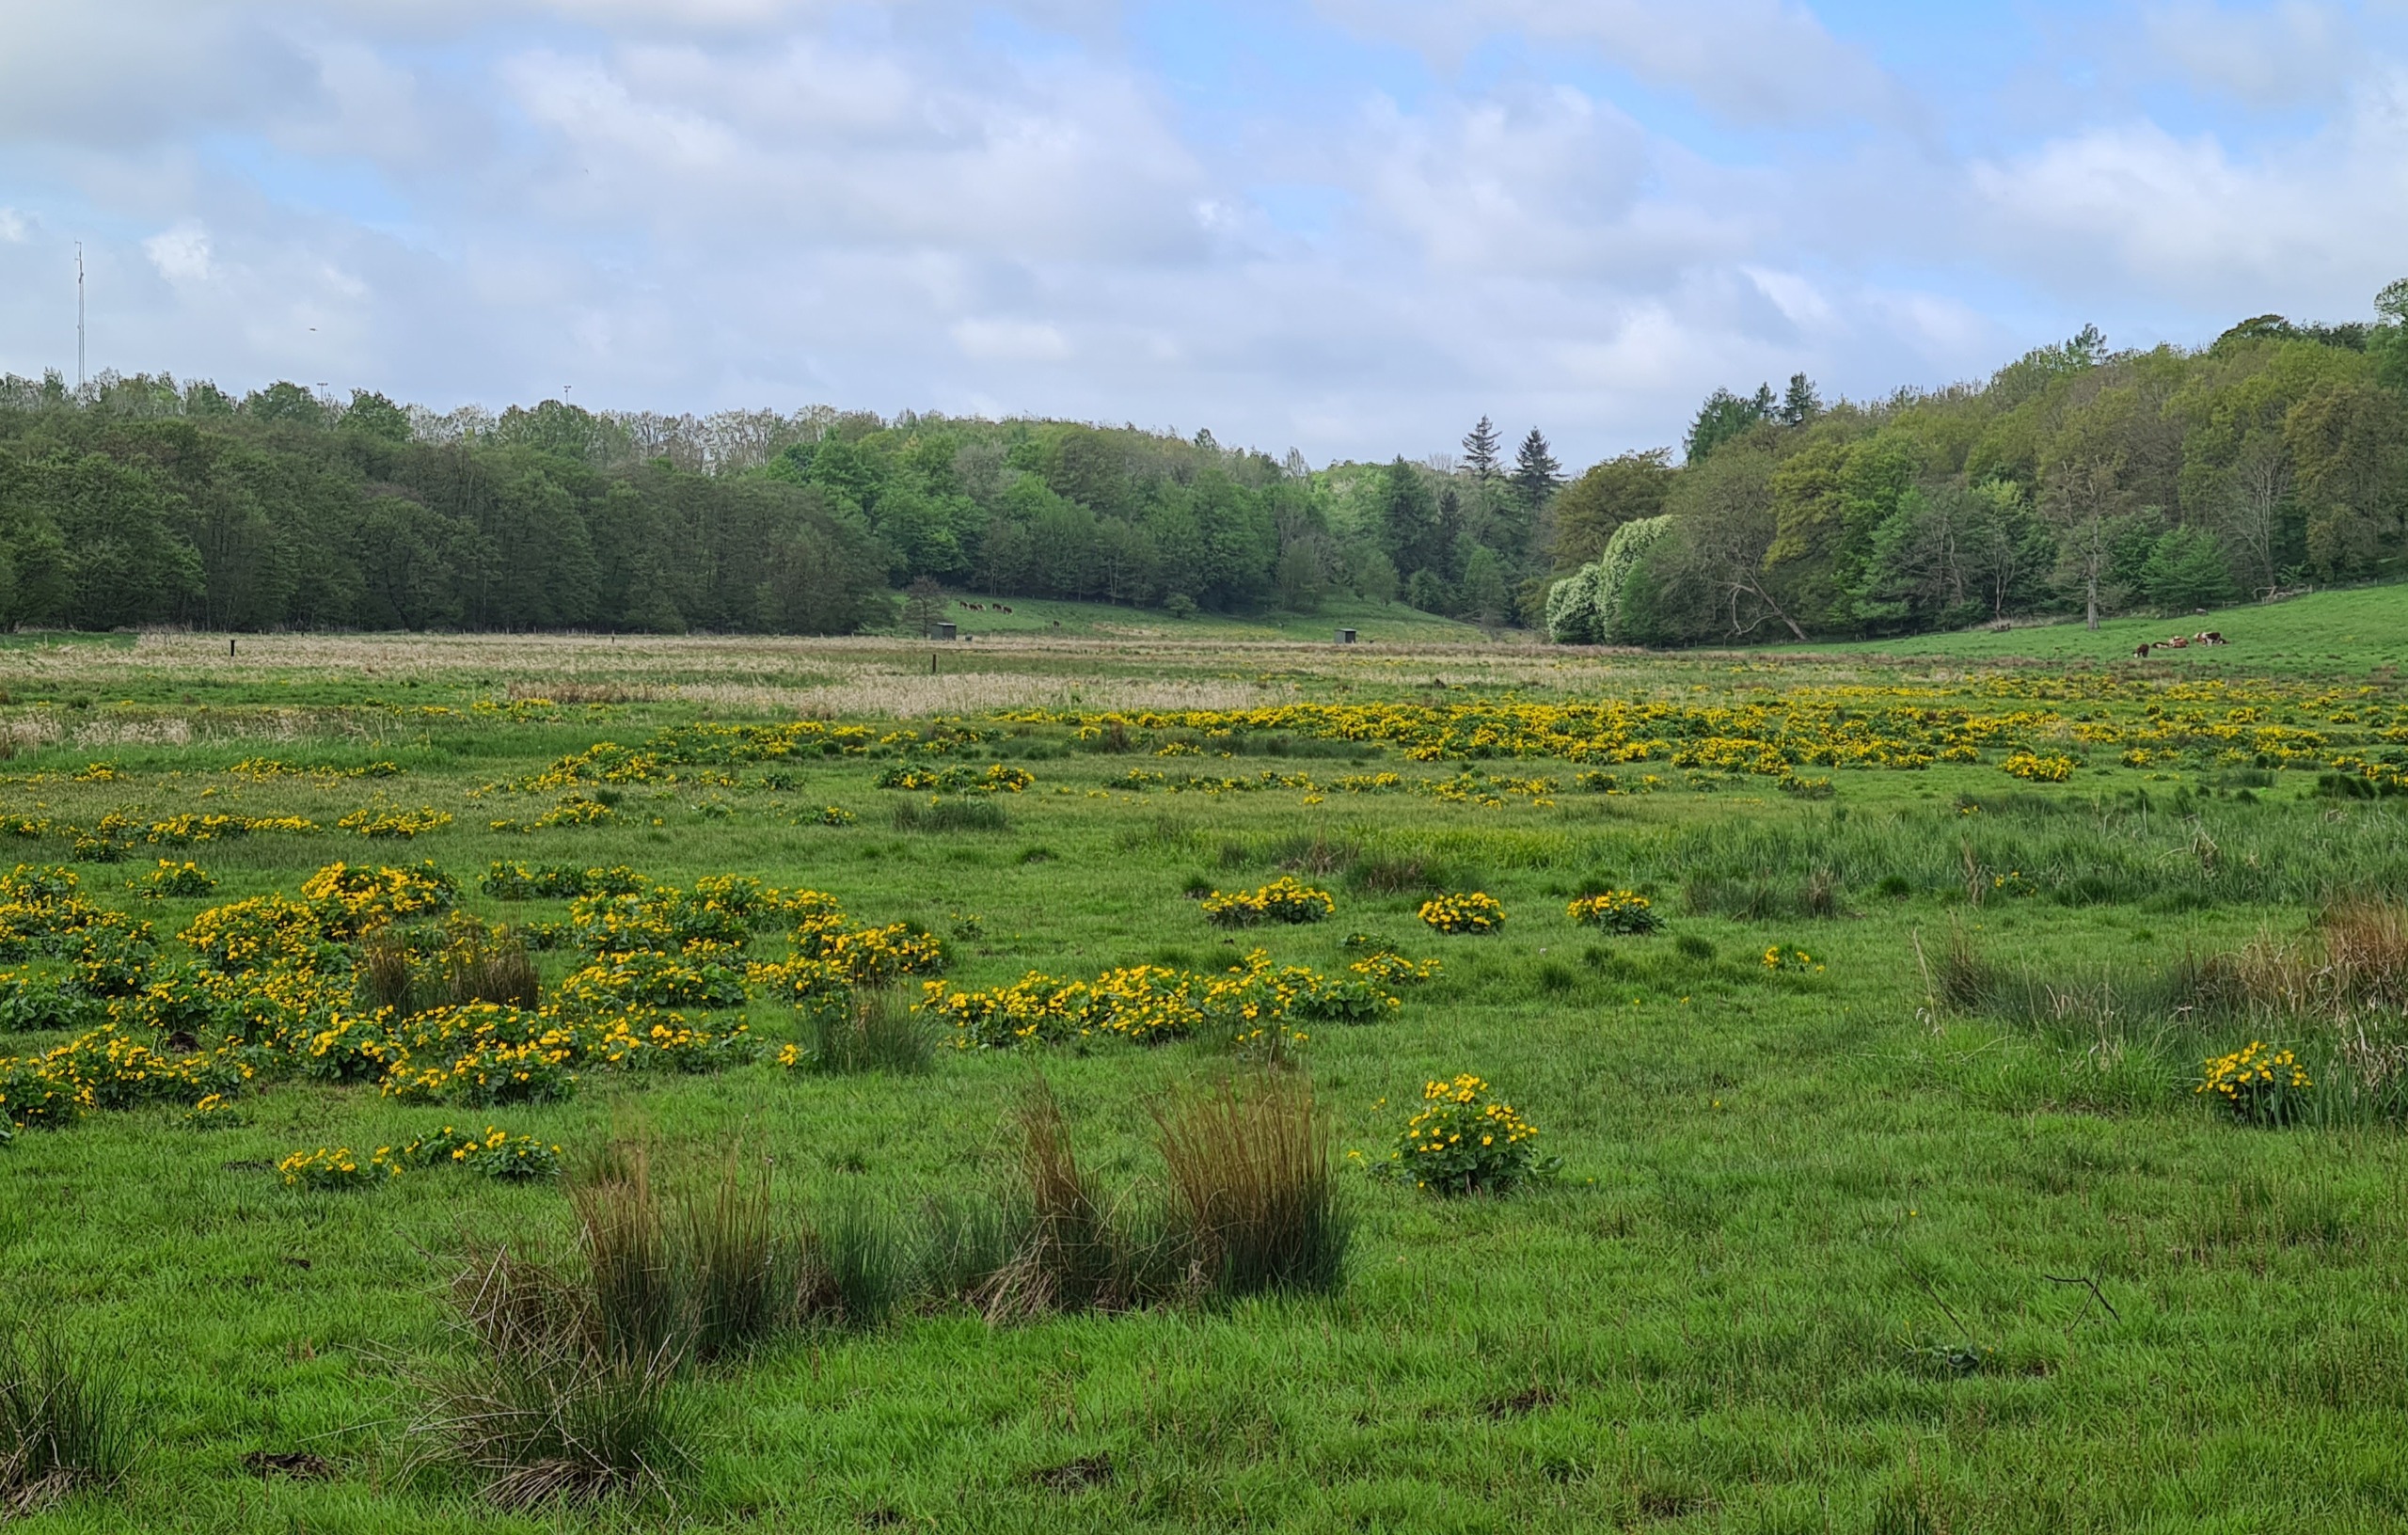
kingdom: Plantae
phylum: Tracheophyta
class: Magnoliopsida
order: Ranunculales
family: Ranunculaceae
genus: Caltha
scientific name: Caltha palustris
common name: Eng-kabbeleje
